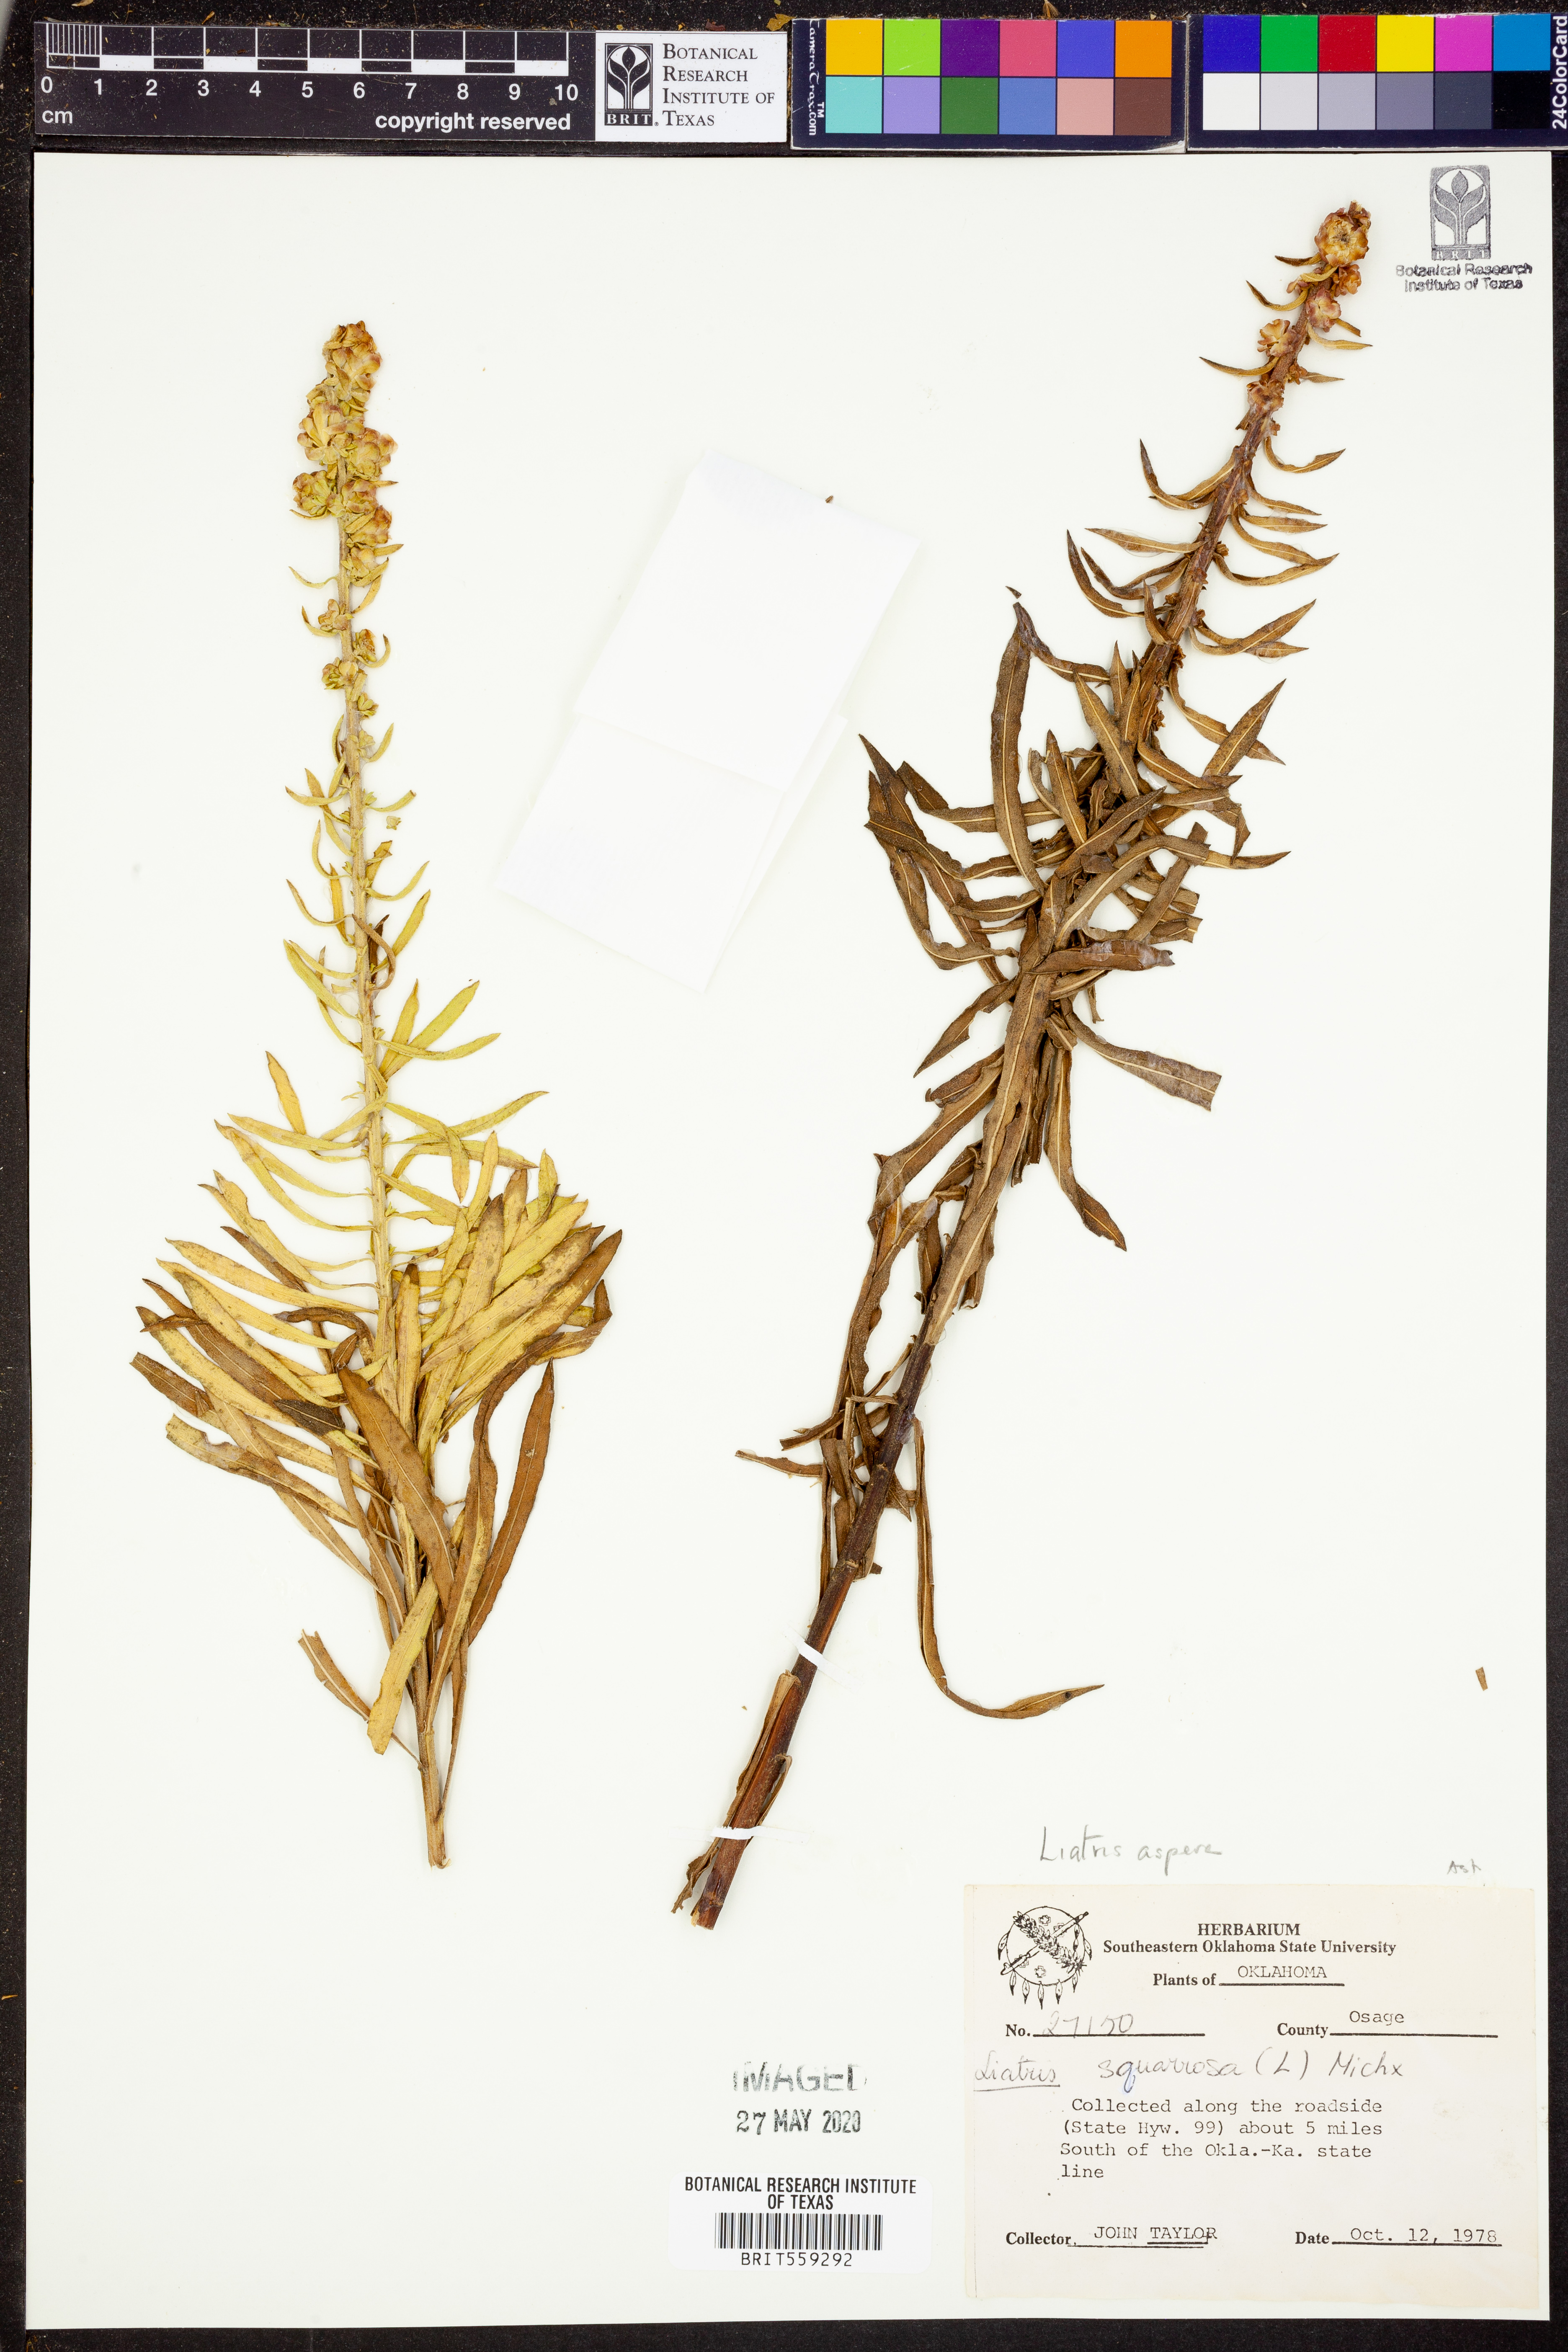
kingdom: Plantae
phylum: Tracheophyta
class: Magnoliopsida
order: Asterales
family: Asteraceae
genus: Liatris
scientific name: Liatris aspera
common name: Lacerate blazing-star
